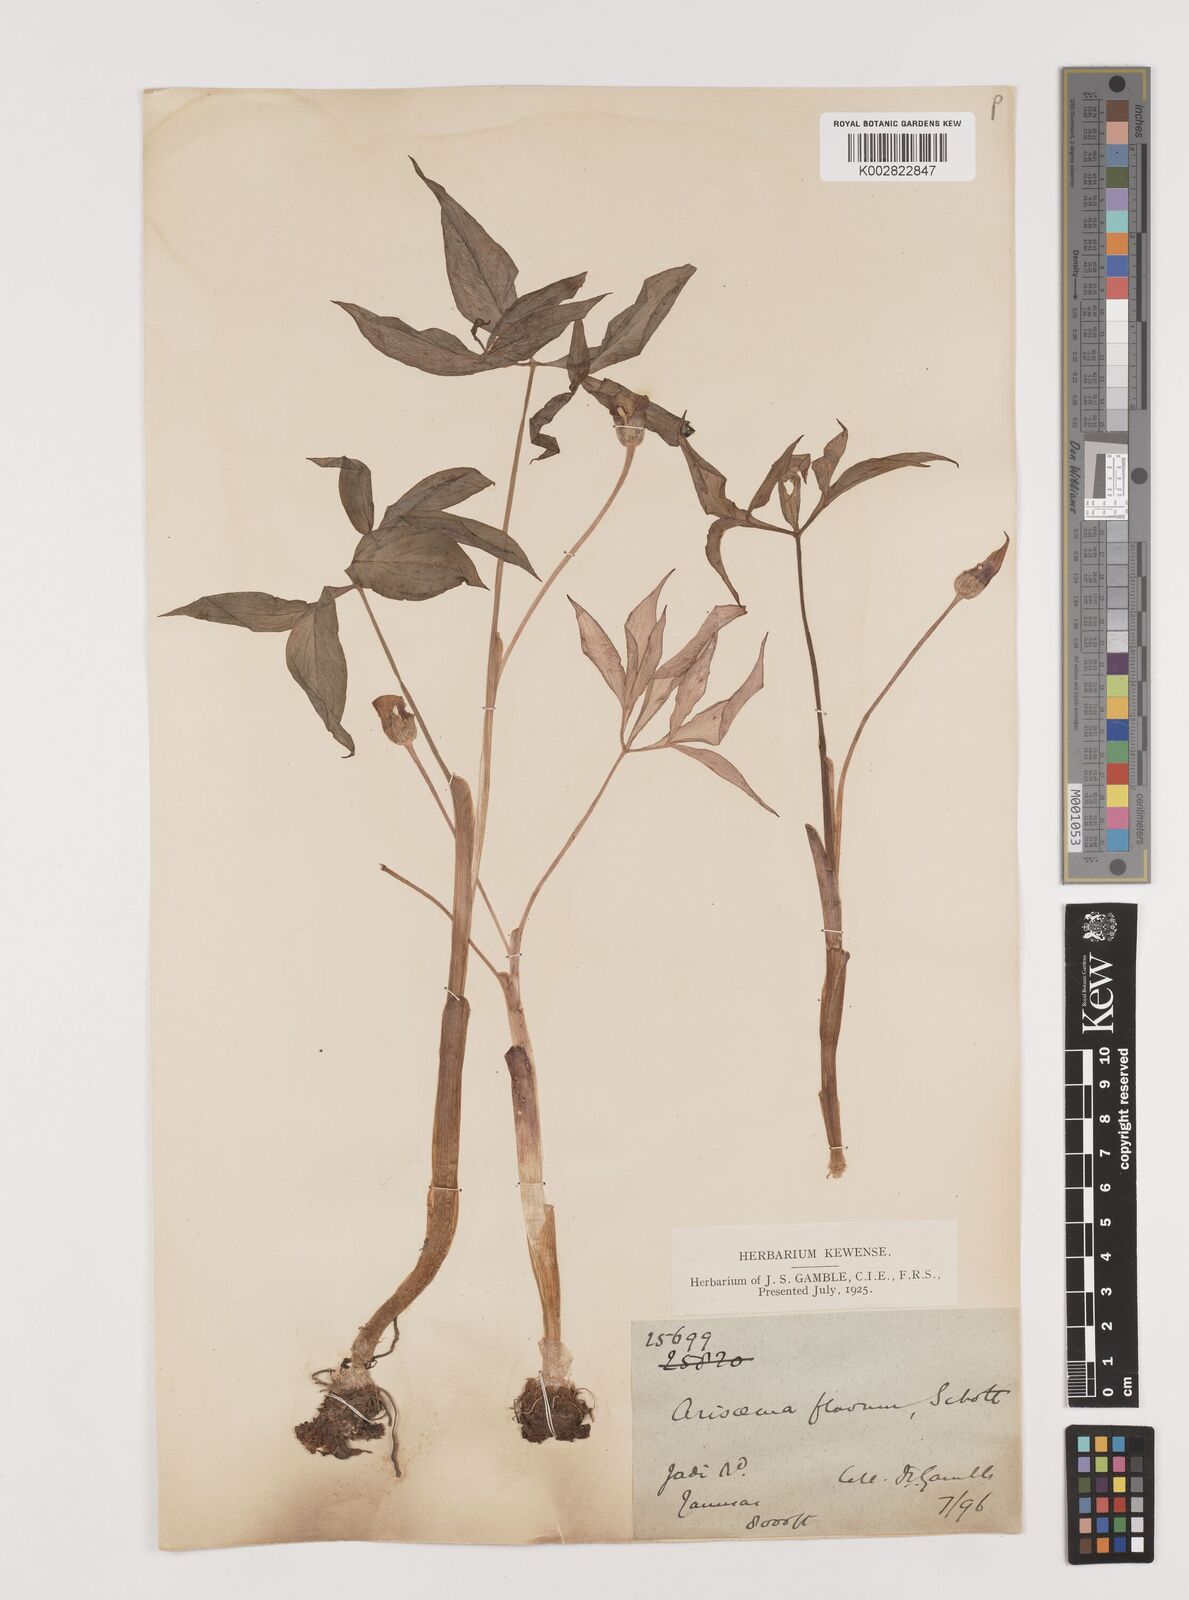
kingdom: Plantae
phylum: Tracheophyta
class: Liliopsida
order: Alismatales
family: Araceae
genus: Arisaema
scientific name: Arisaema flavum
